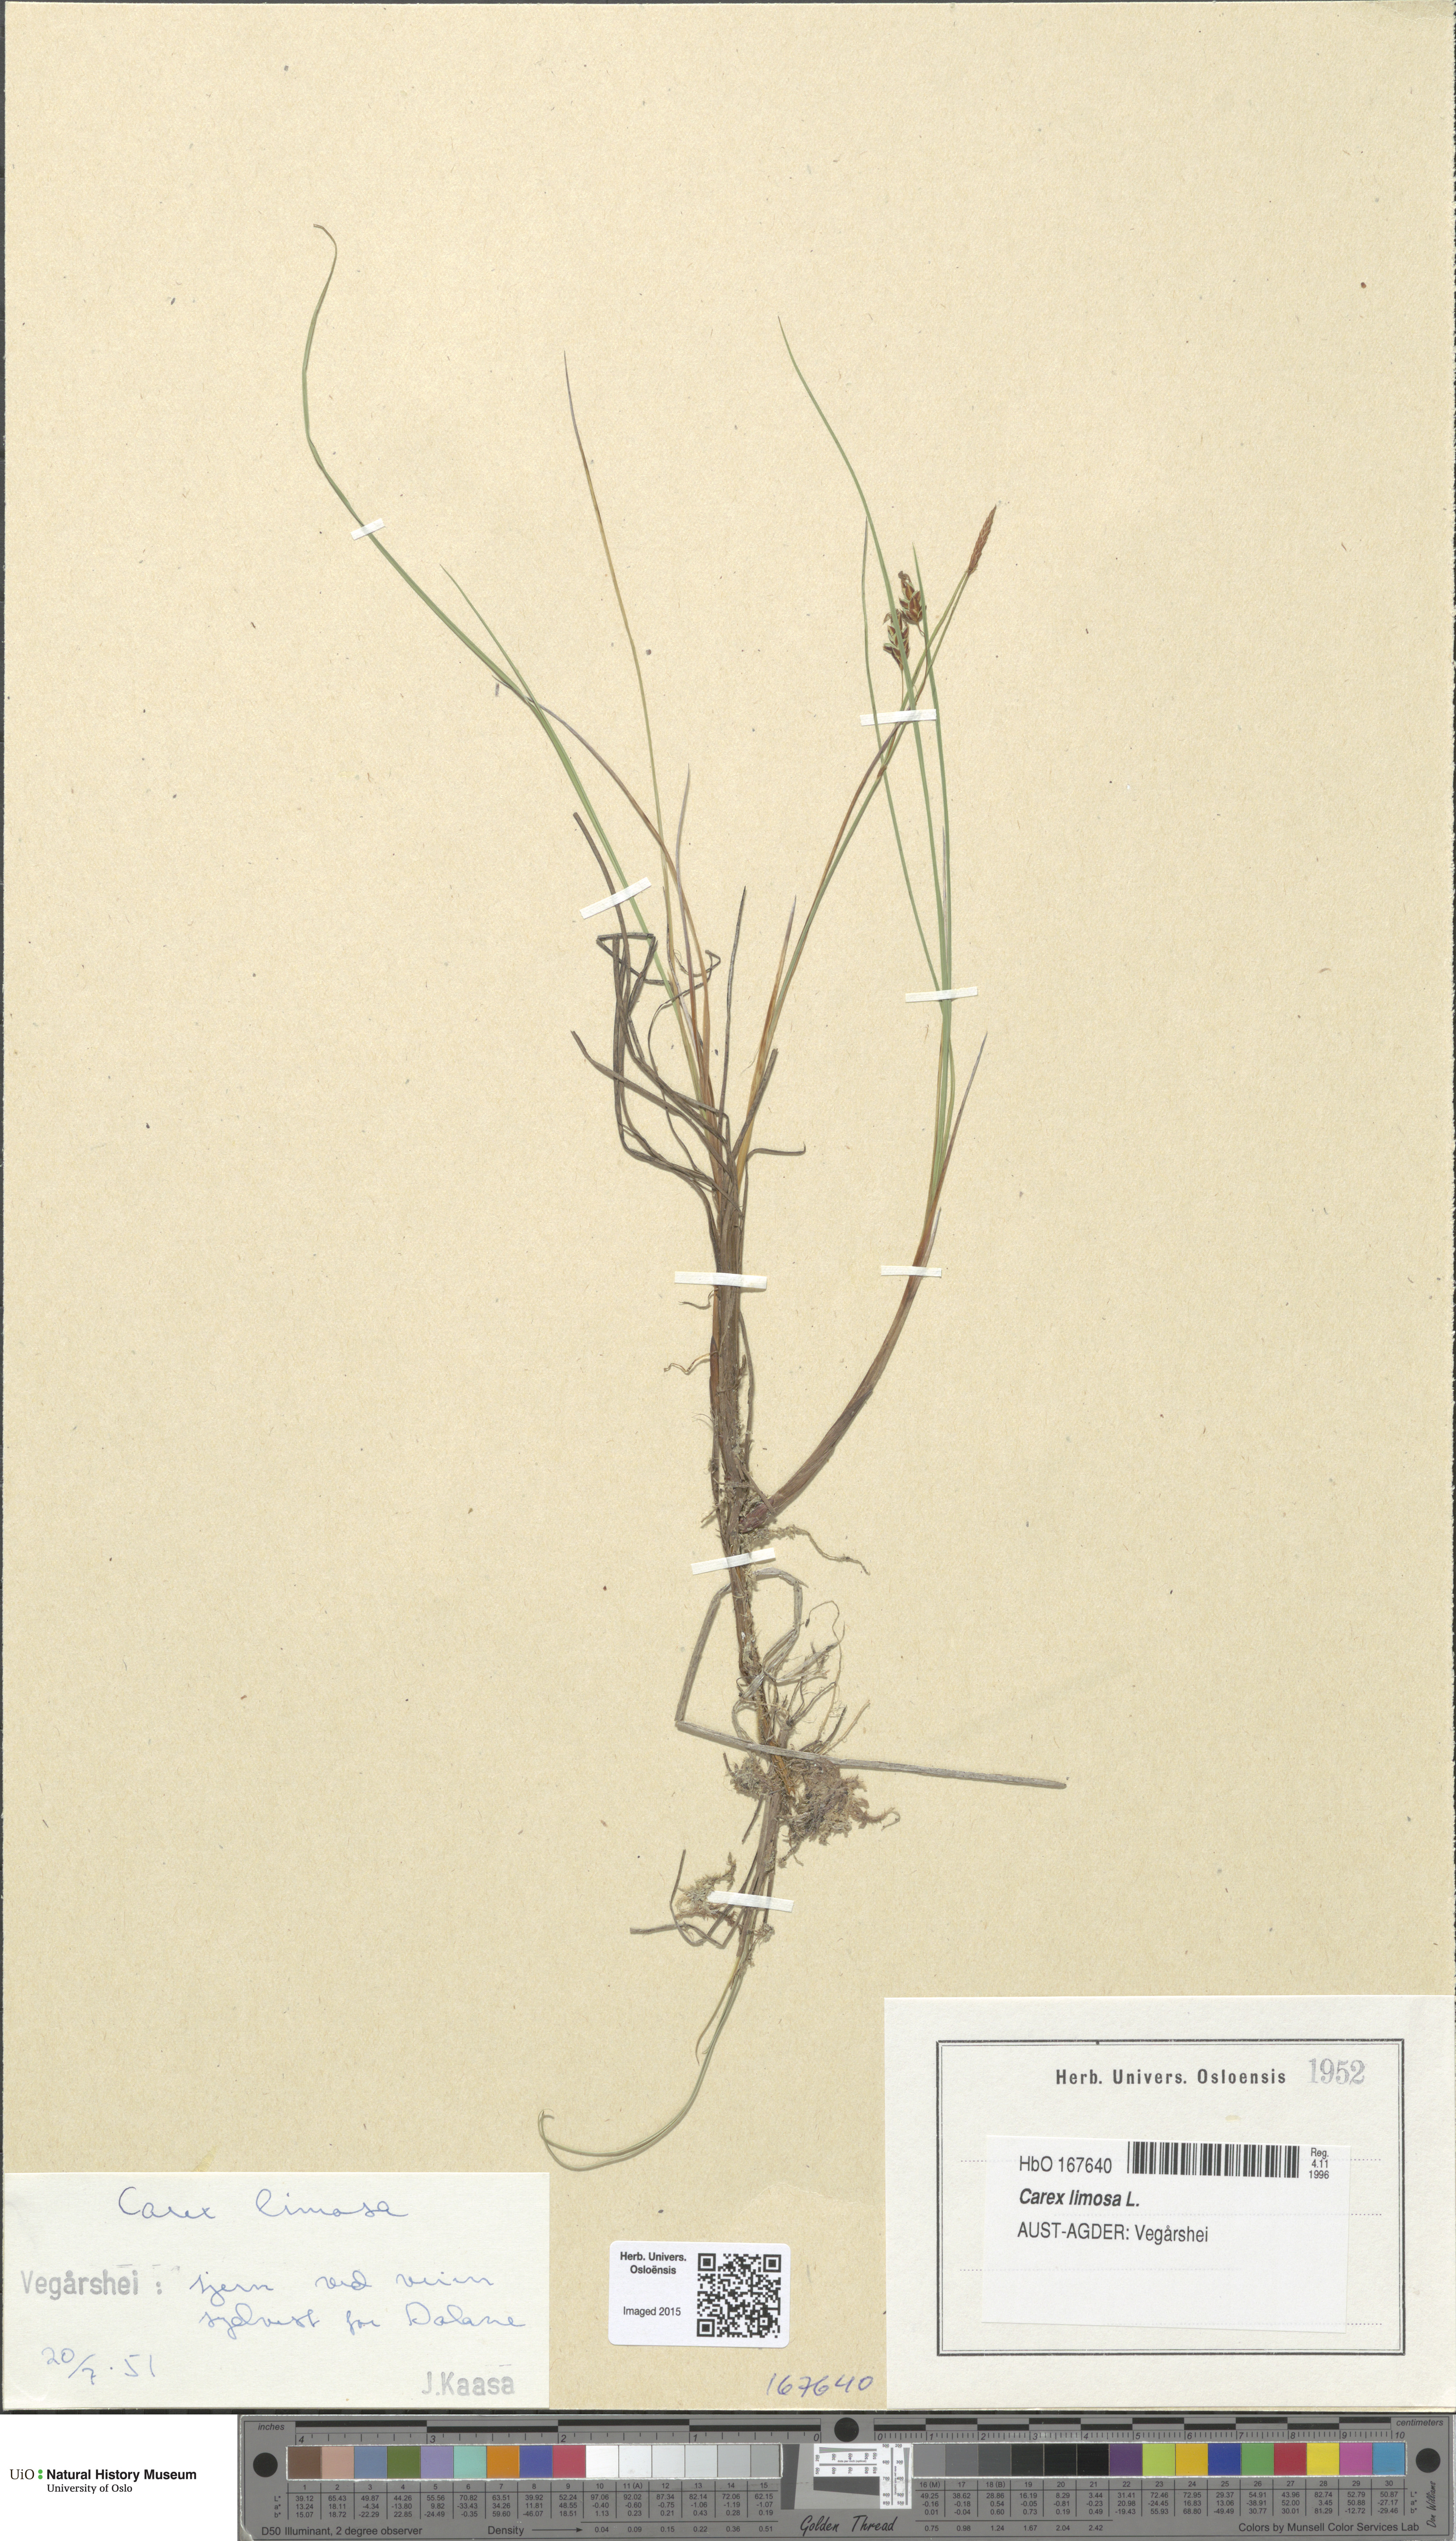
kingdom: Plantae
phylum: Tracheophyta
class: Liliopsida
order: Poales
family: Cyperaceae
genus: Carex
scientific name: Carex limosa
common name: Bog sedge
